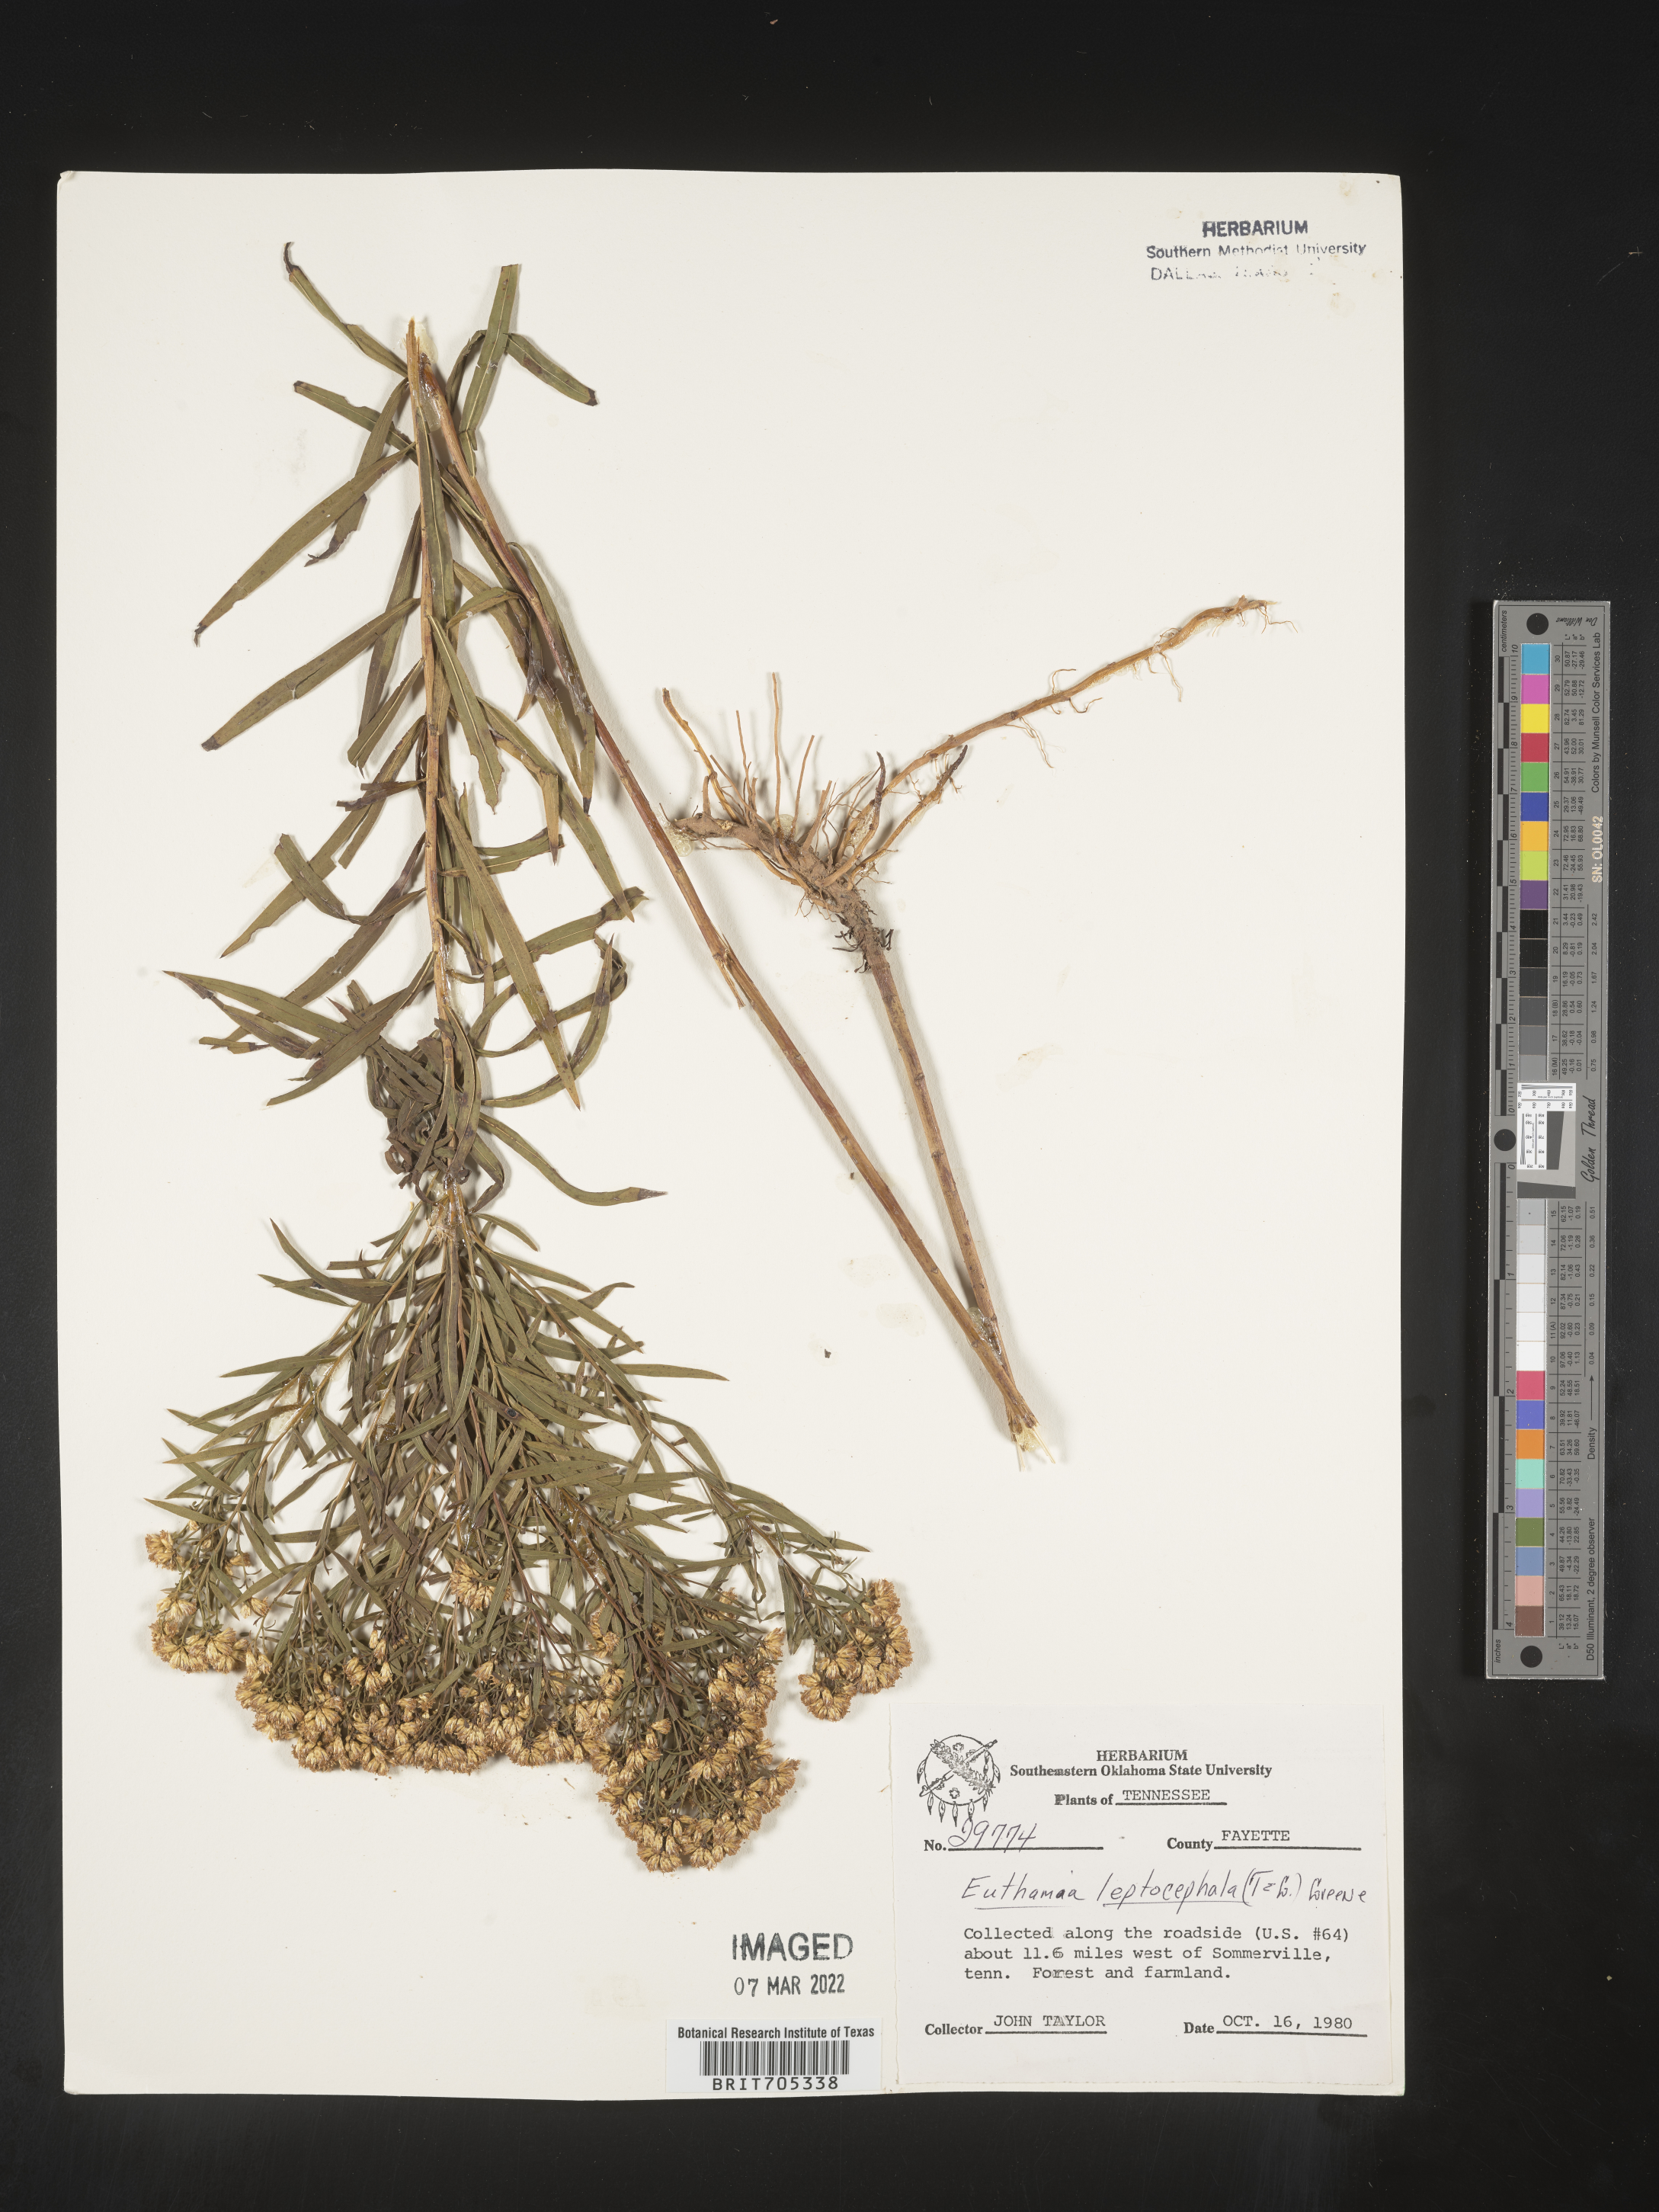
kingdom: Plantae
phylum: Tracheophyta
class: Magnoliopsida
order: Asterales
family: Asteraceae
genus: Euthamia
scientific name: Euthamia leptocephala
